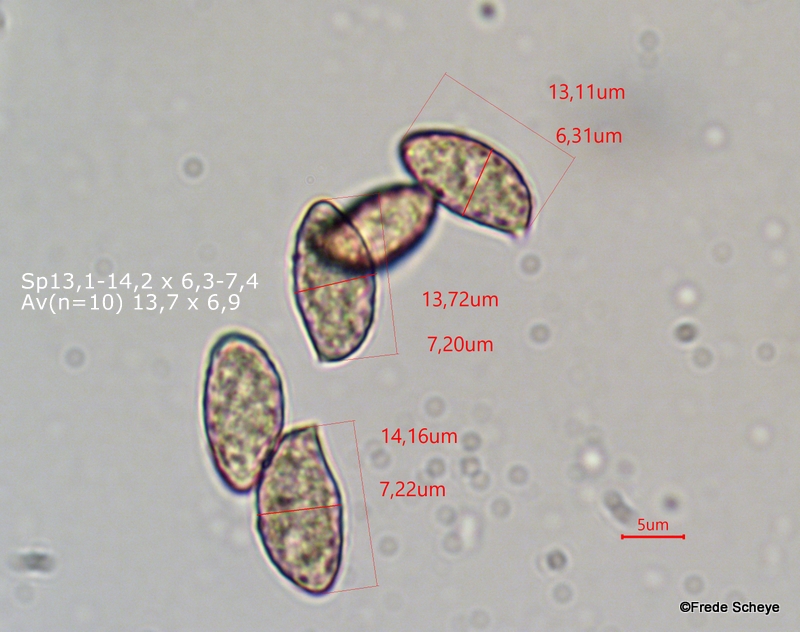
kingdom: Fungi
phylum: Basidiomycota
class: Agaricomycetes
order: Agaricales
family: Cortinariaceae
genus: Cortinarius
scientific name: Cortinarius collinitoides
